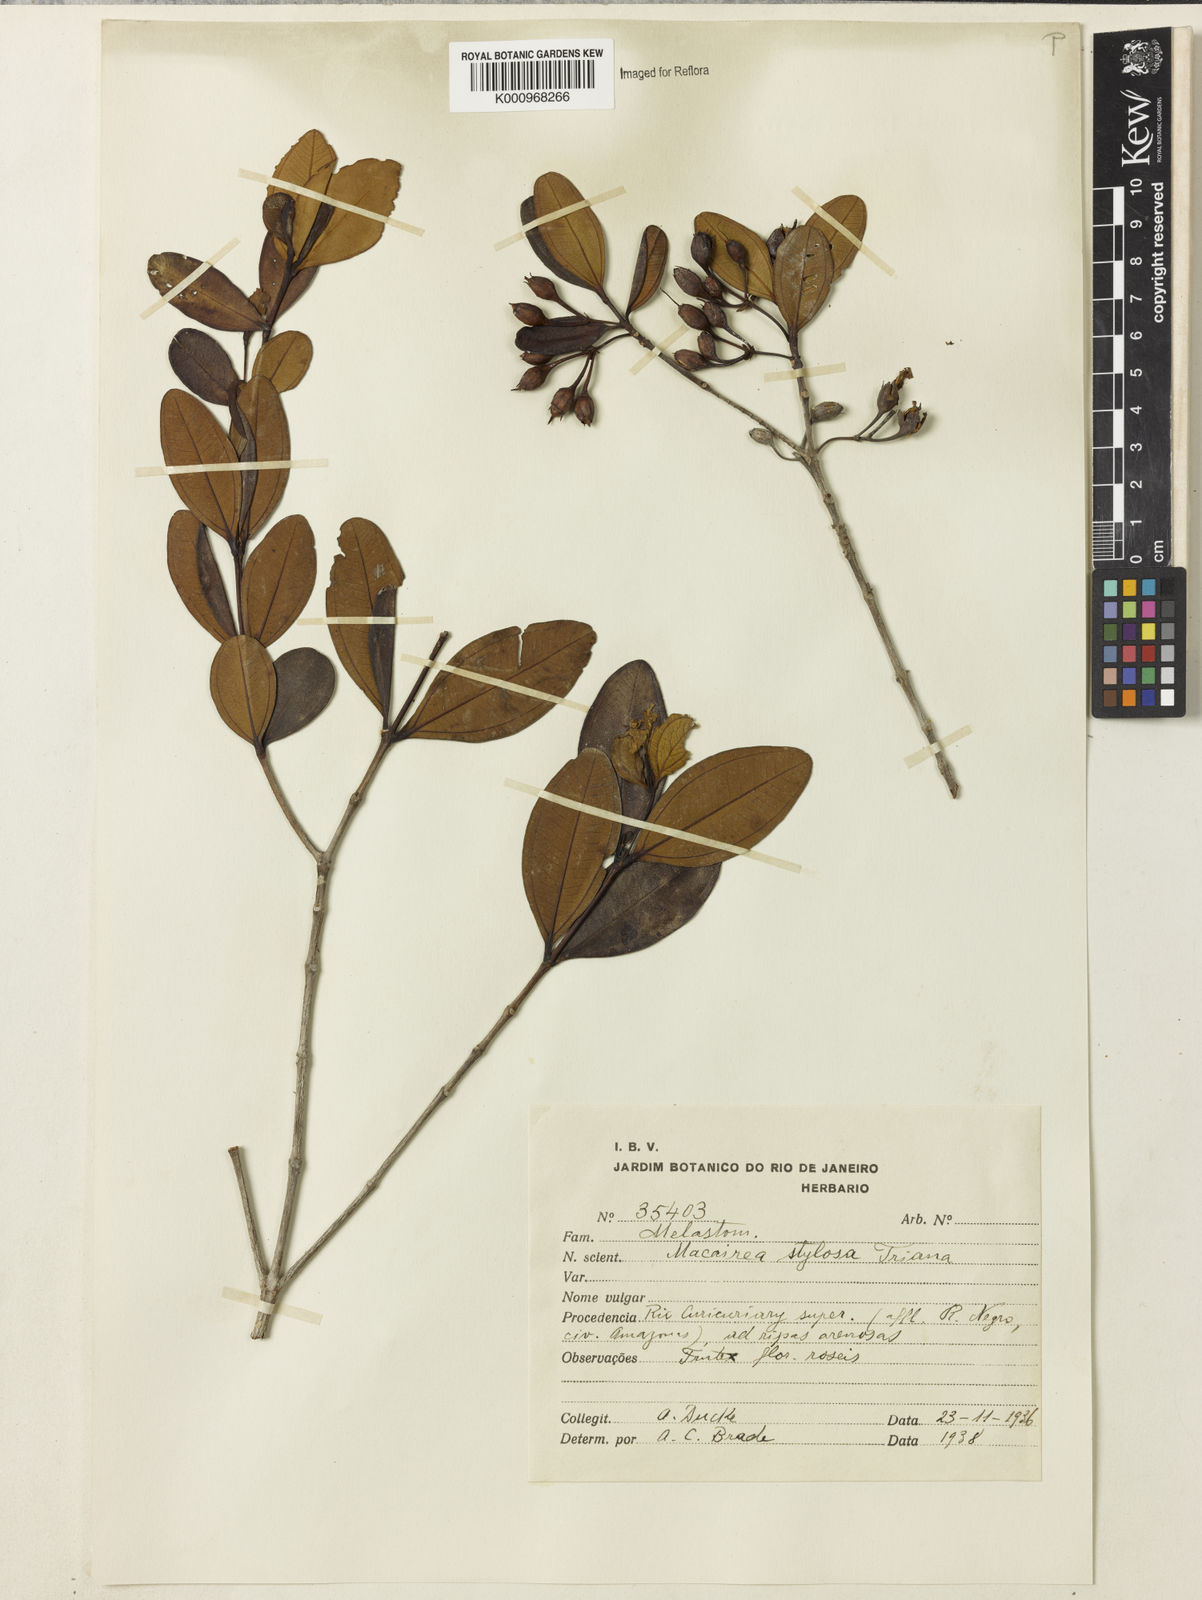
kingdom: Plantae
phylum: Tracheophyta
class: Magnoliopsida
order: Myrtales
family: Melastomataceae
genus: Macairea
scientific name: Macairea stylosa
